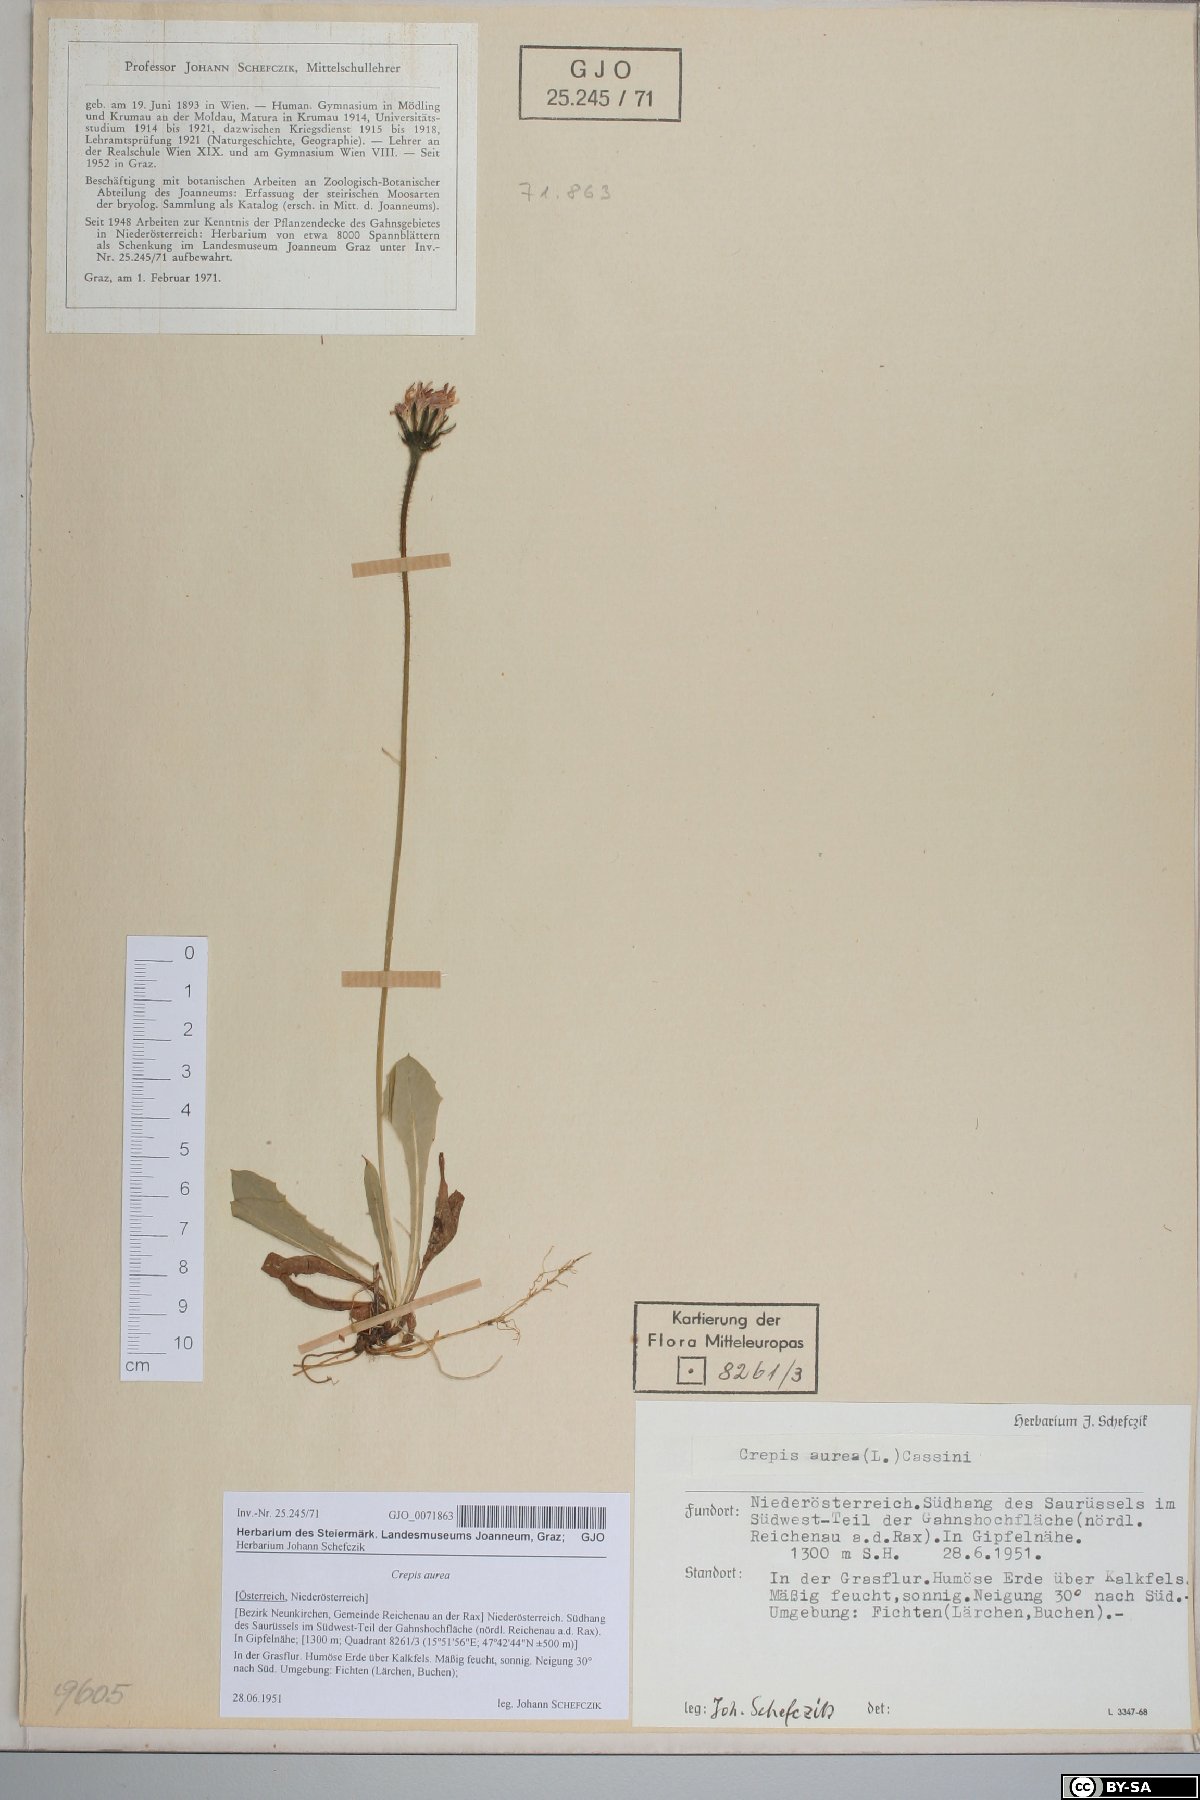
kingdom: Plantae
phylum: Tracheophyta
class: Magnoliopsida
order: Asterales
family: Asteraceae
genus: Crepis
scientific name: Crepis aurea
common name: Golden hawk's-beard
